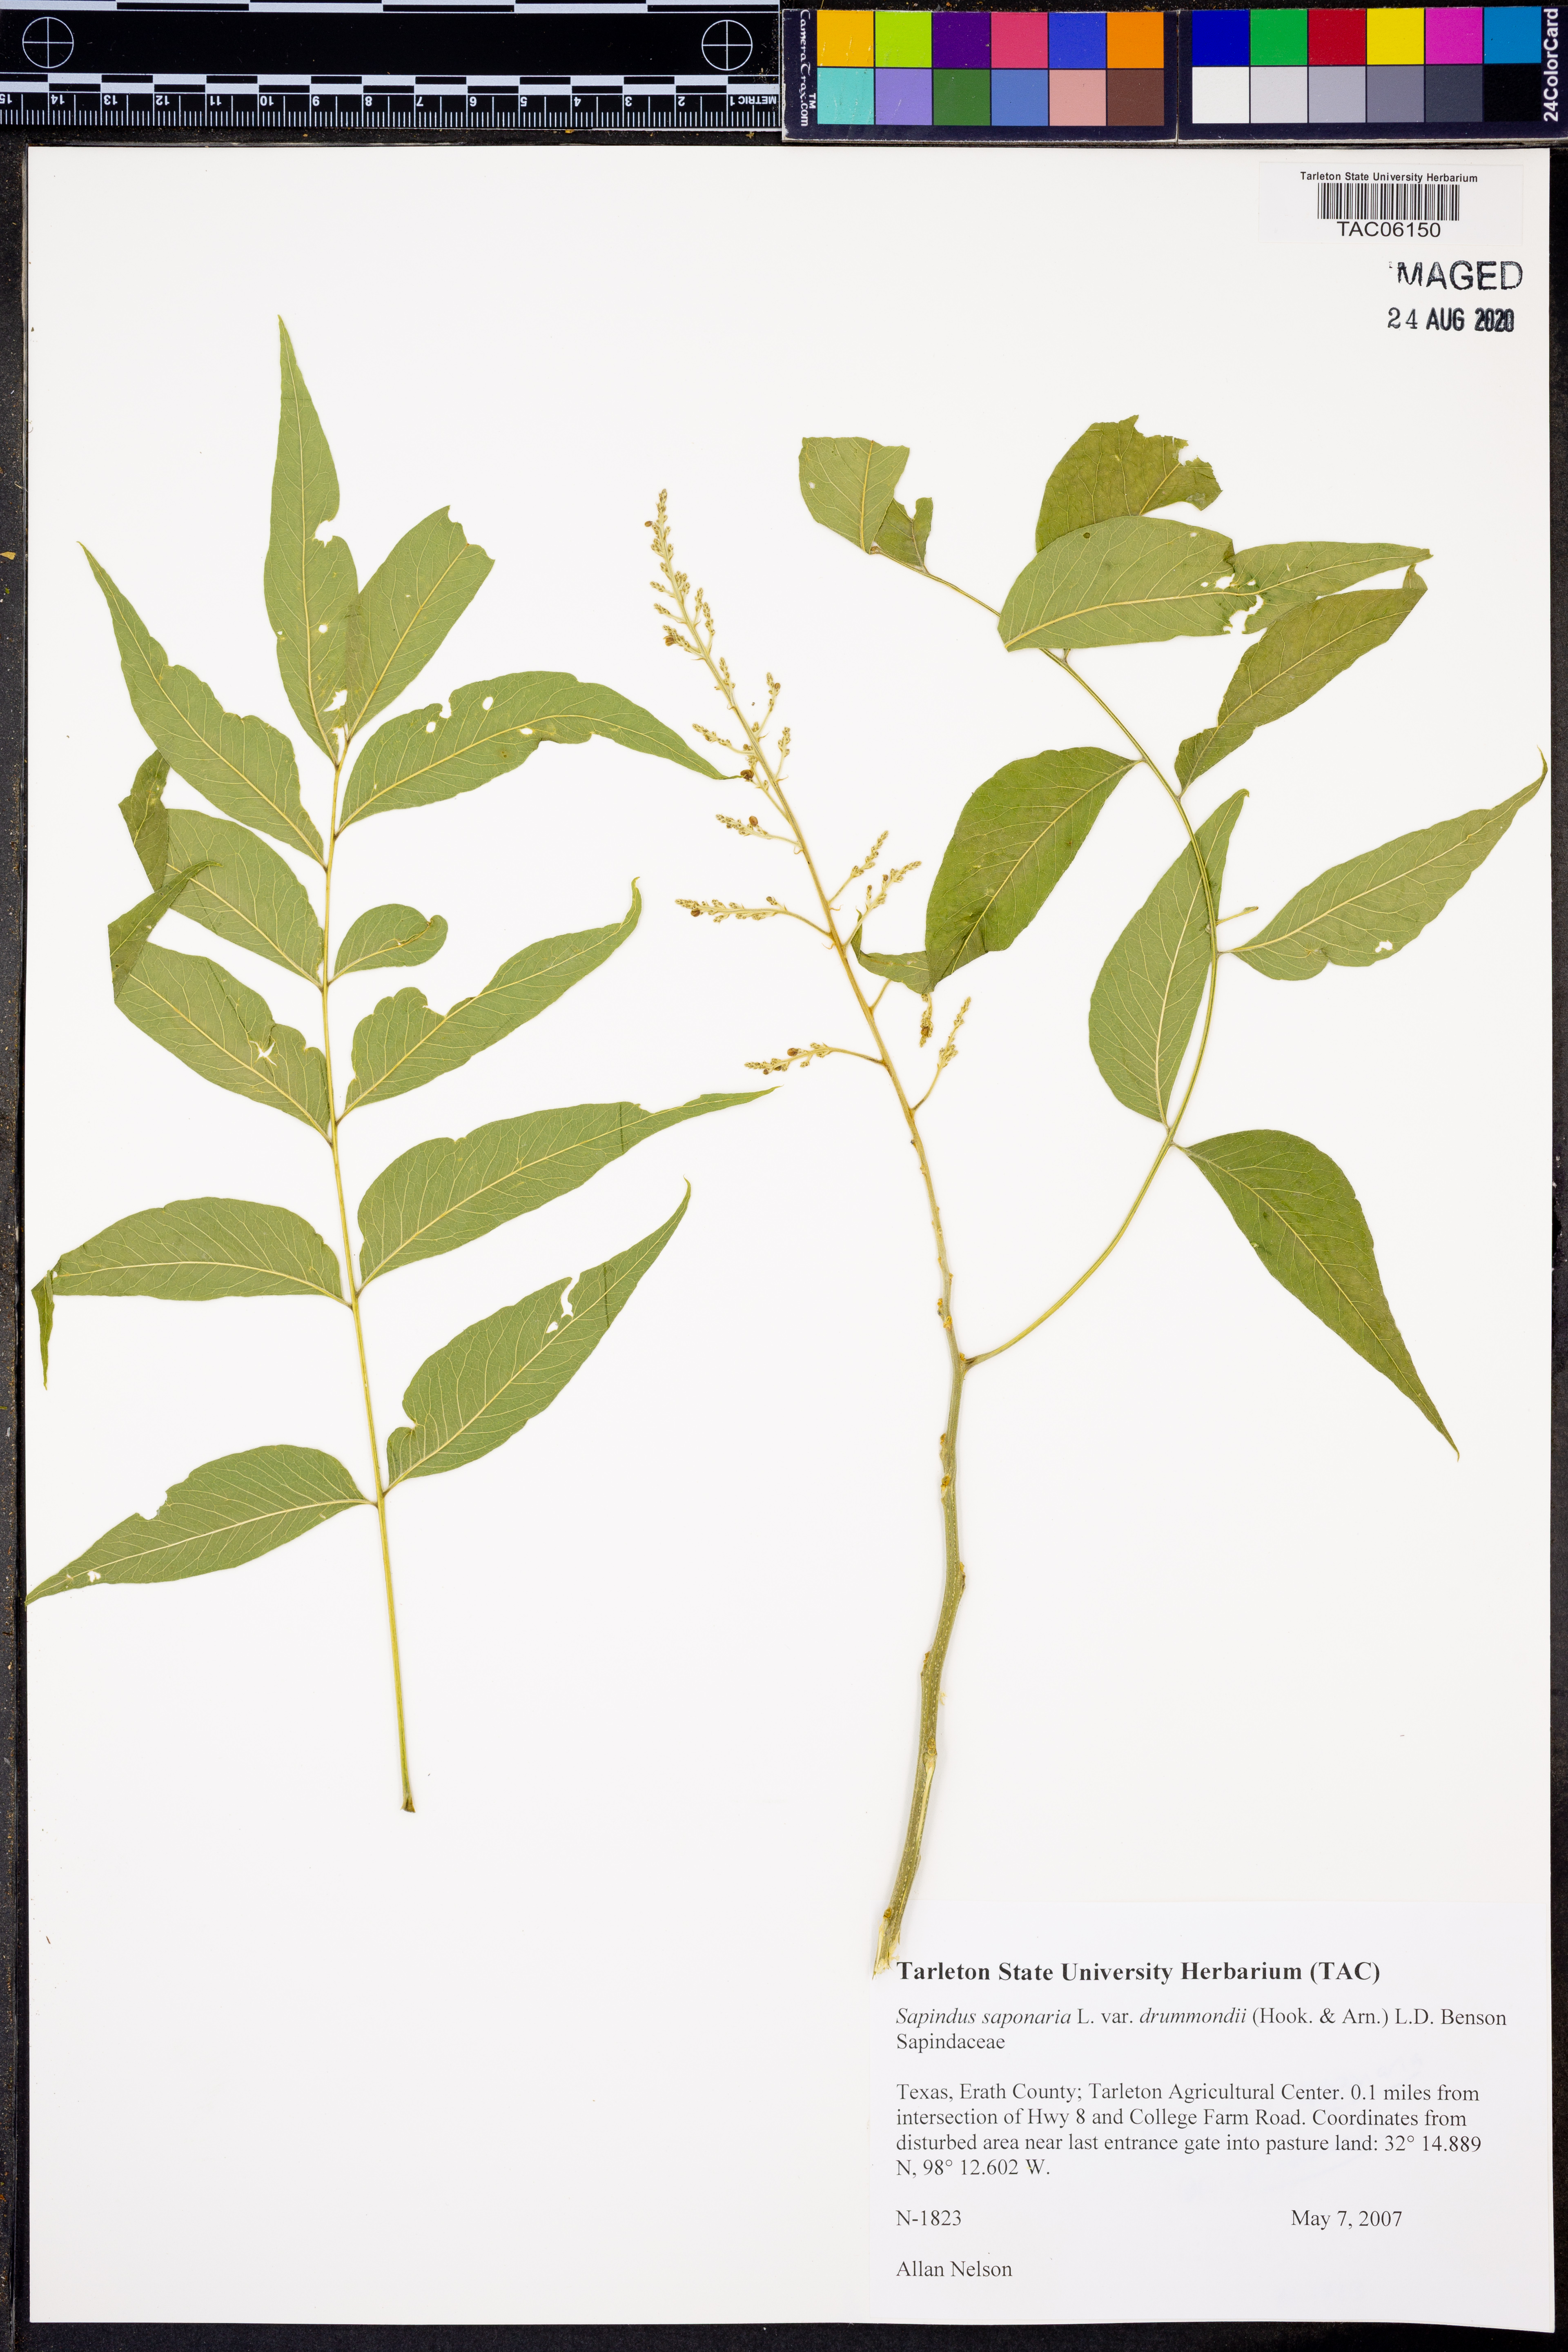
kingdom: Plantae
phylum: Tracheophyta
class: Magnoliopsida
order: Sapindales
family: Sapindaceae
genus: Sapindus
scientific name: Sapindus drummondii
